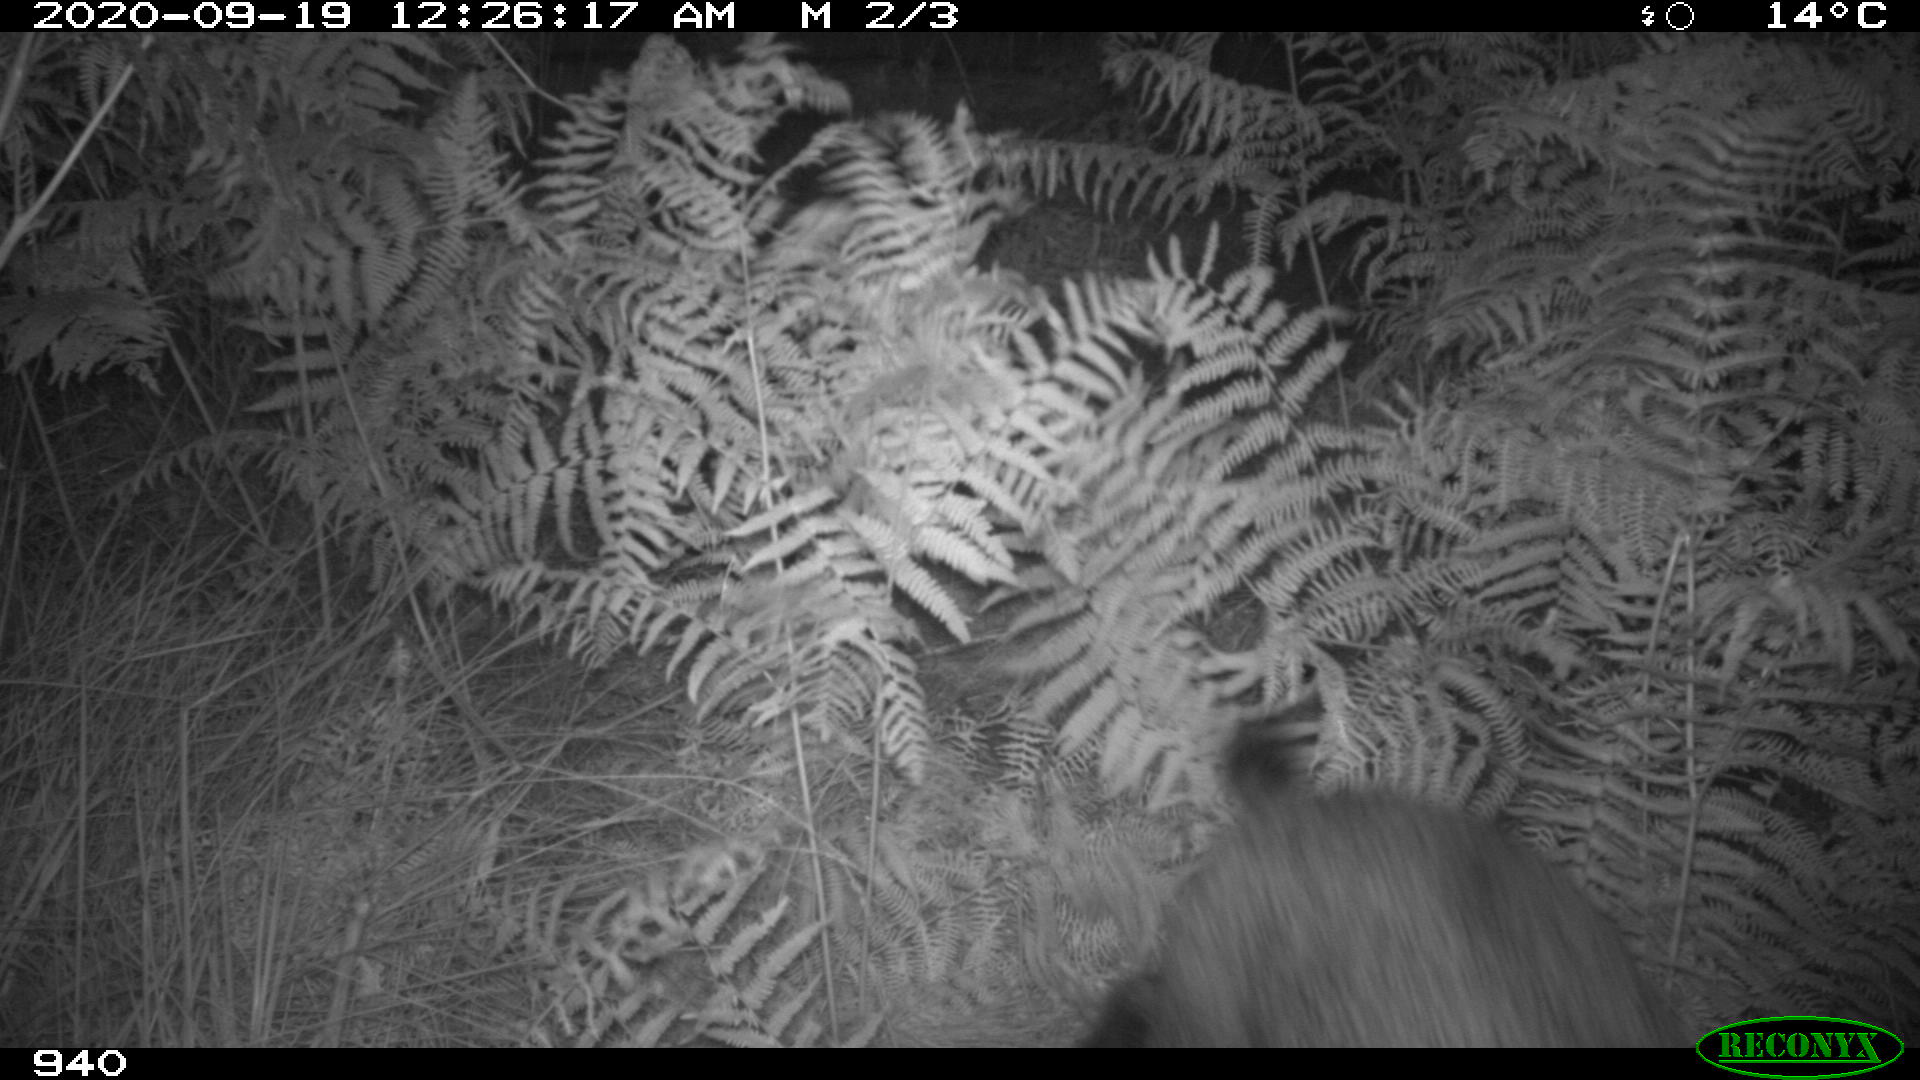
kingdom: Animalia
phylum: Chordata
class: Mammalia
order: Artiodactyla
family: Suidae
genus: Sus
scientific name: Sus scrofa
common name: Wild boar
